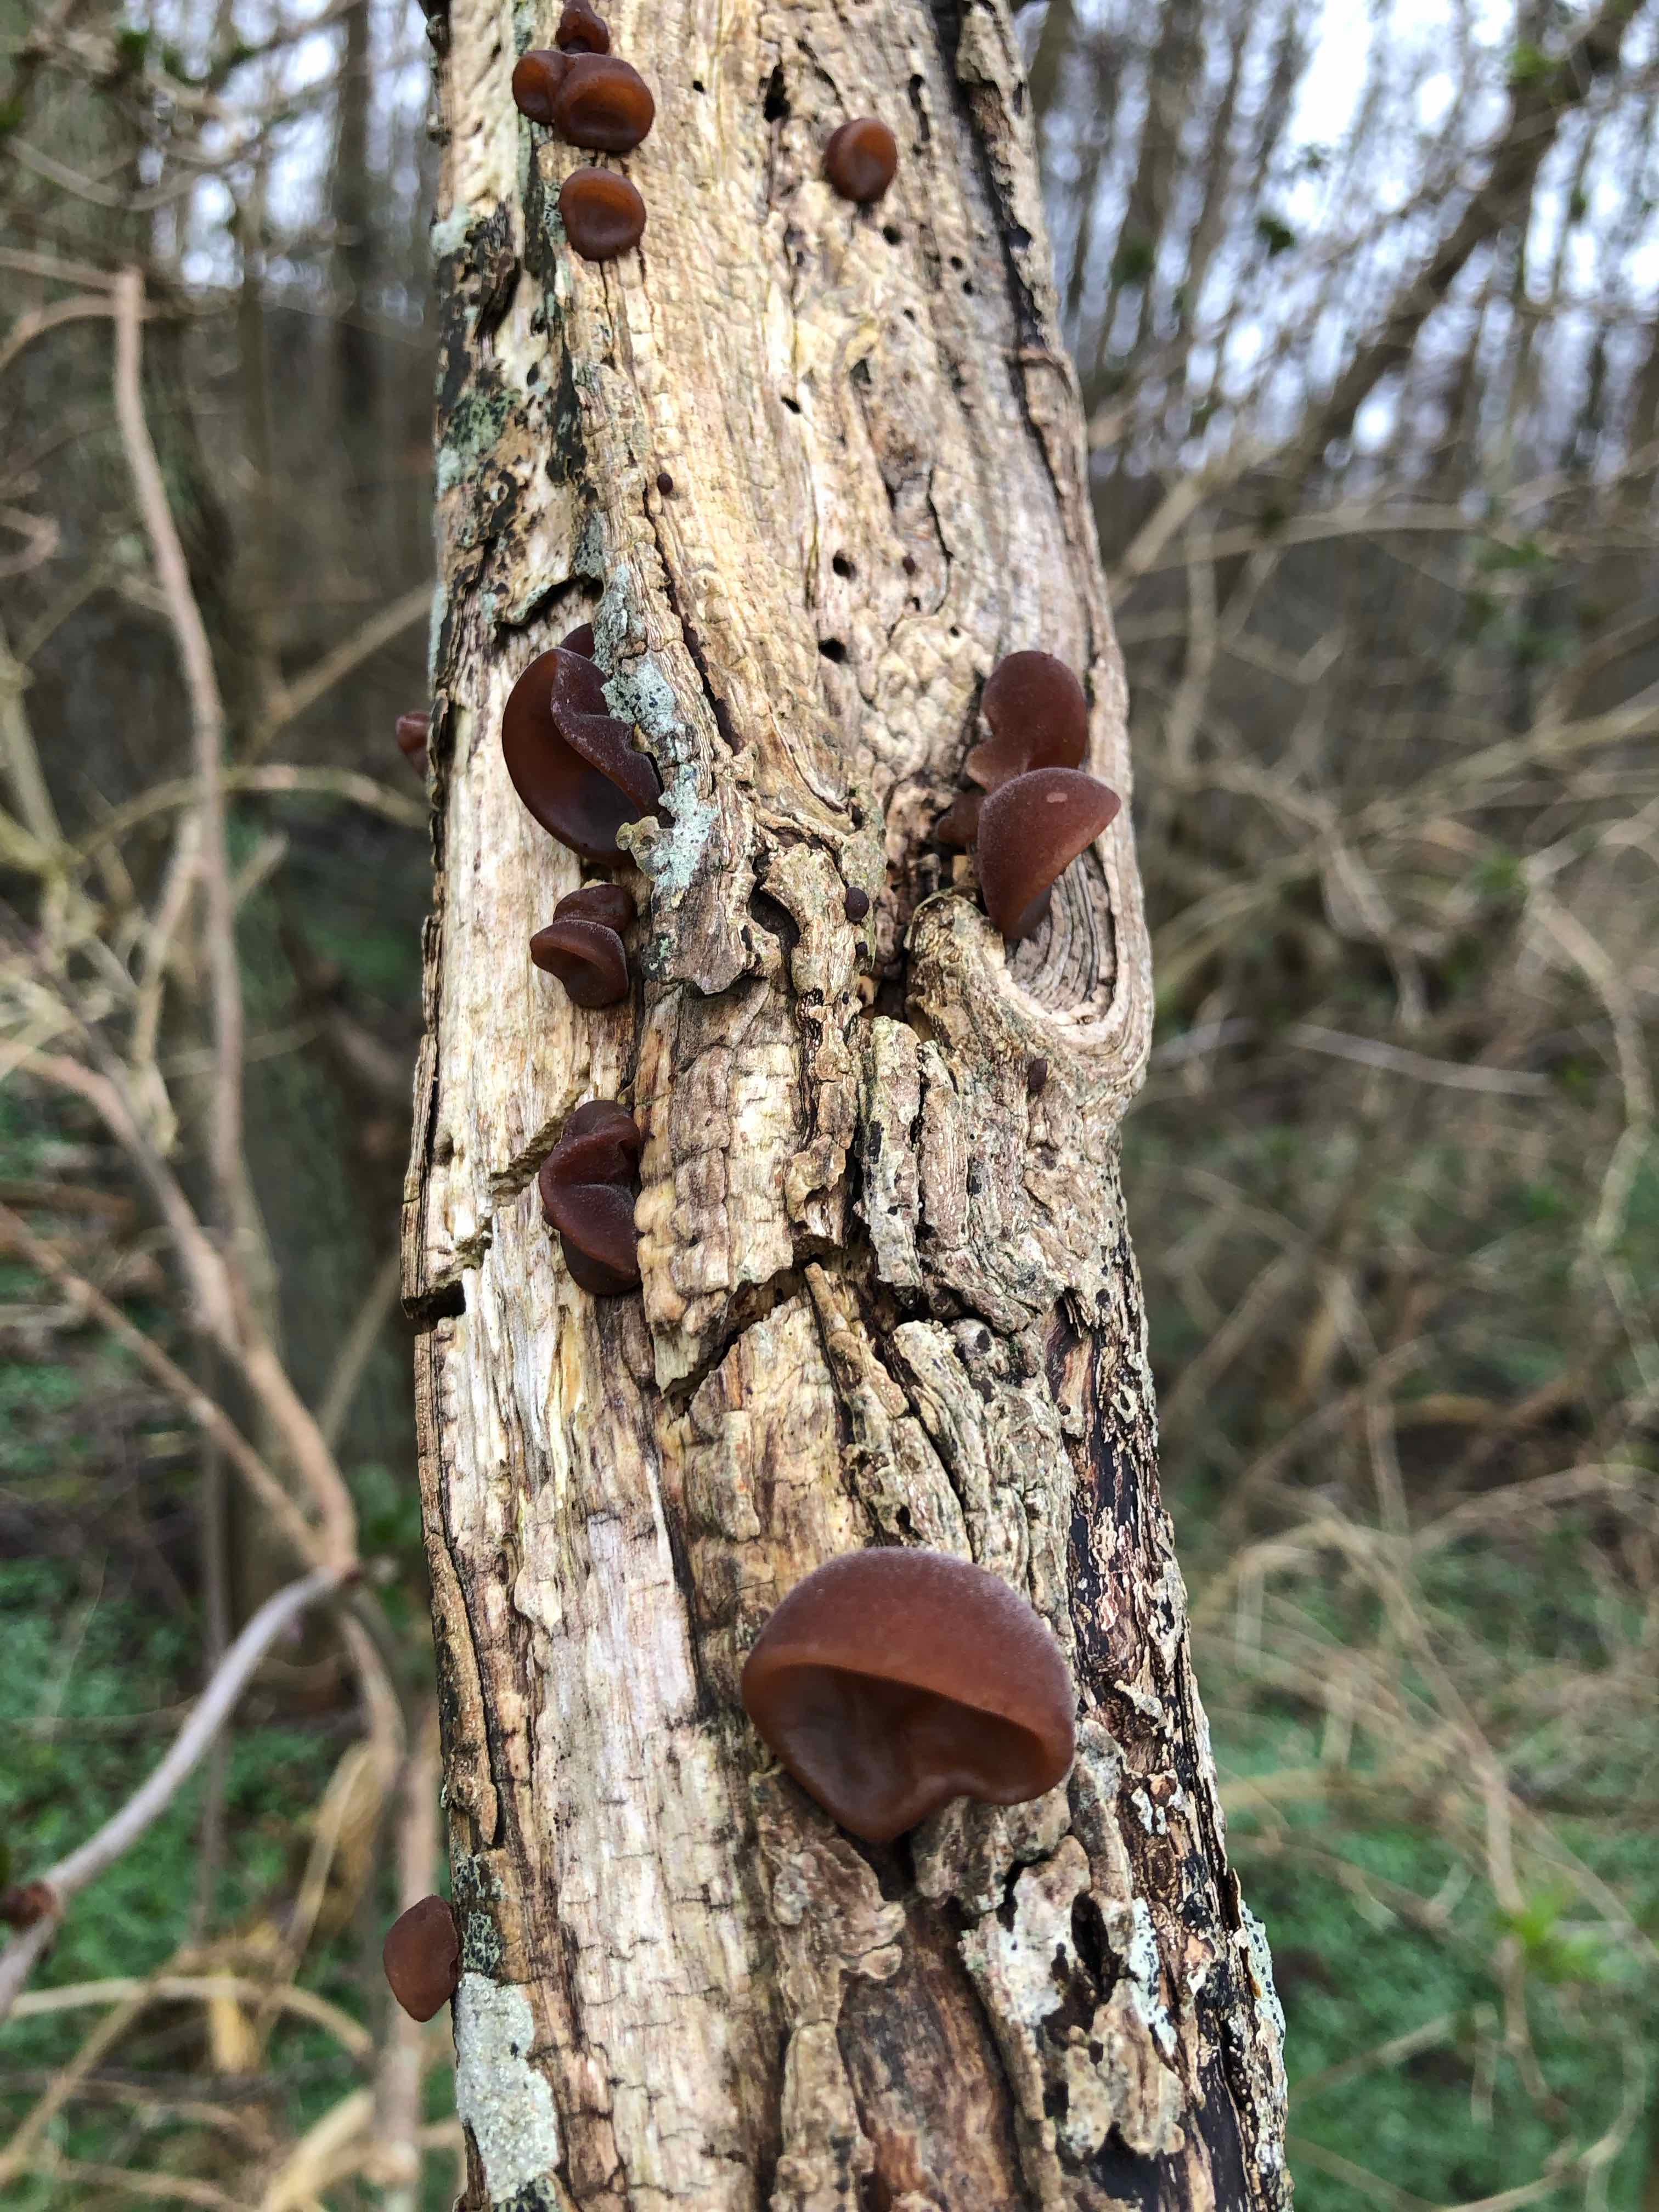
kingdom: Fungi
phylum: Basidiomycota
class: Agaricomycetes
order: Auriculariales
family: Auriculariaceae
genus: Auricularia
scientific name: Auricularia auricula-judae
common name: almindelig judasøre
